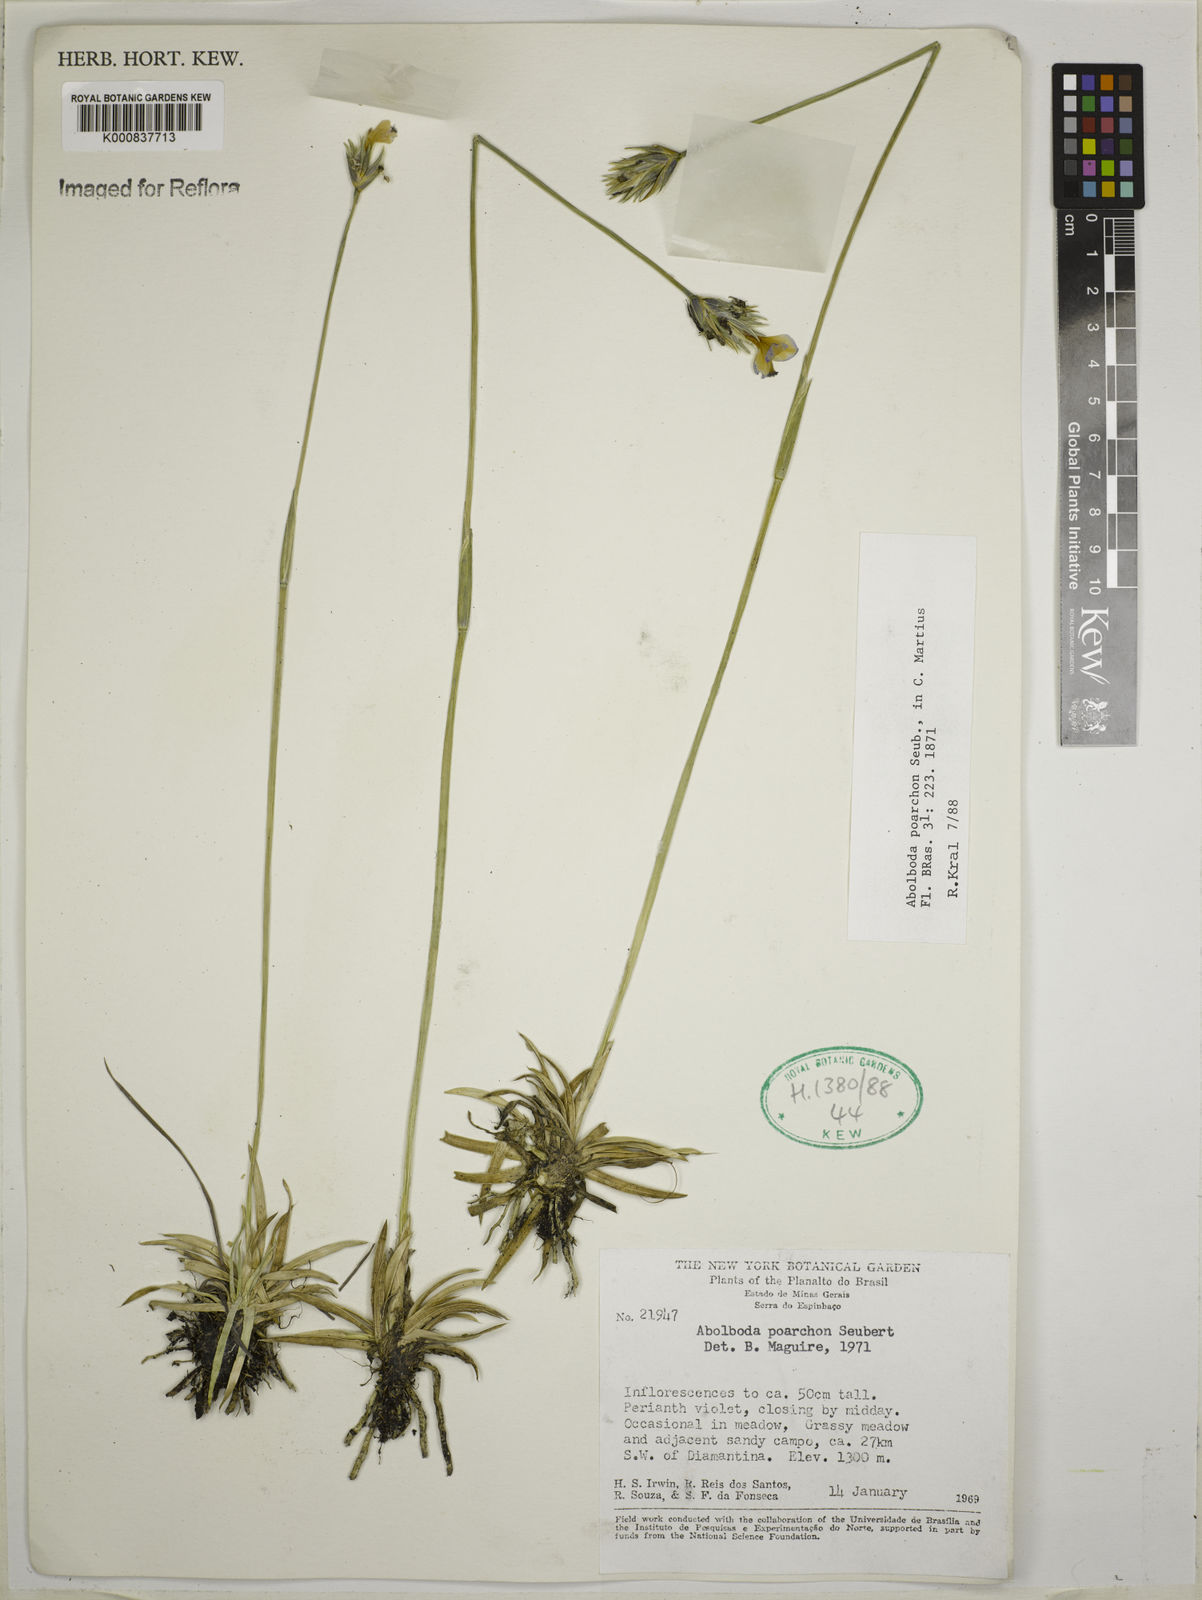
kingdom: Plantae
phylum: Tracheophyta
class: Liliopsida
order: Poales
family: Xyridaceae
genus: Abolboda
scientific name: Abolboda poarchon
